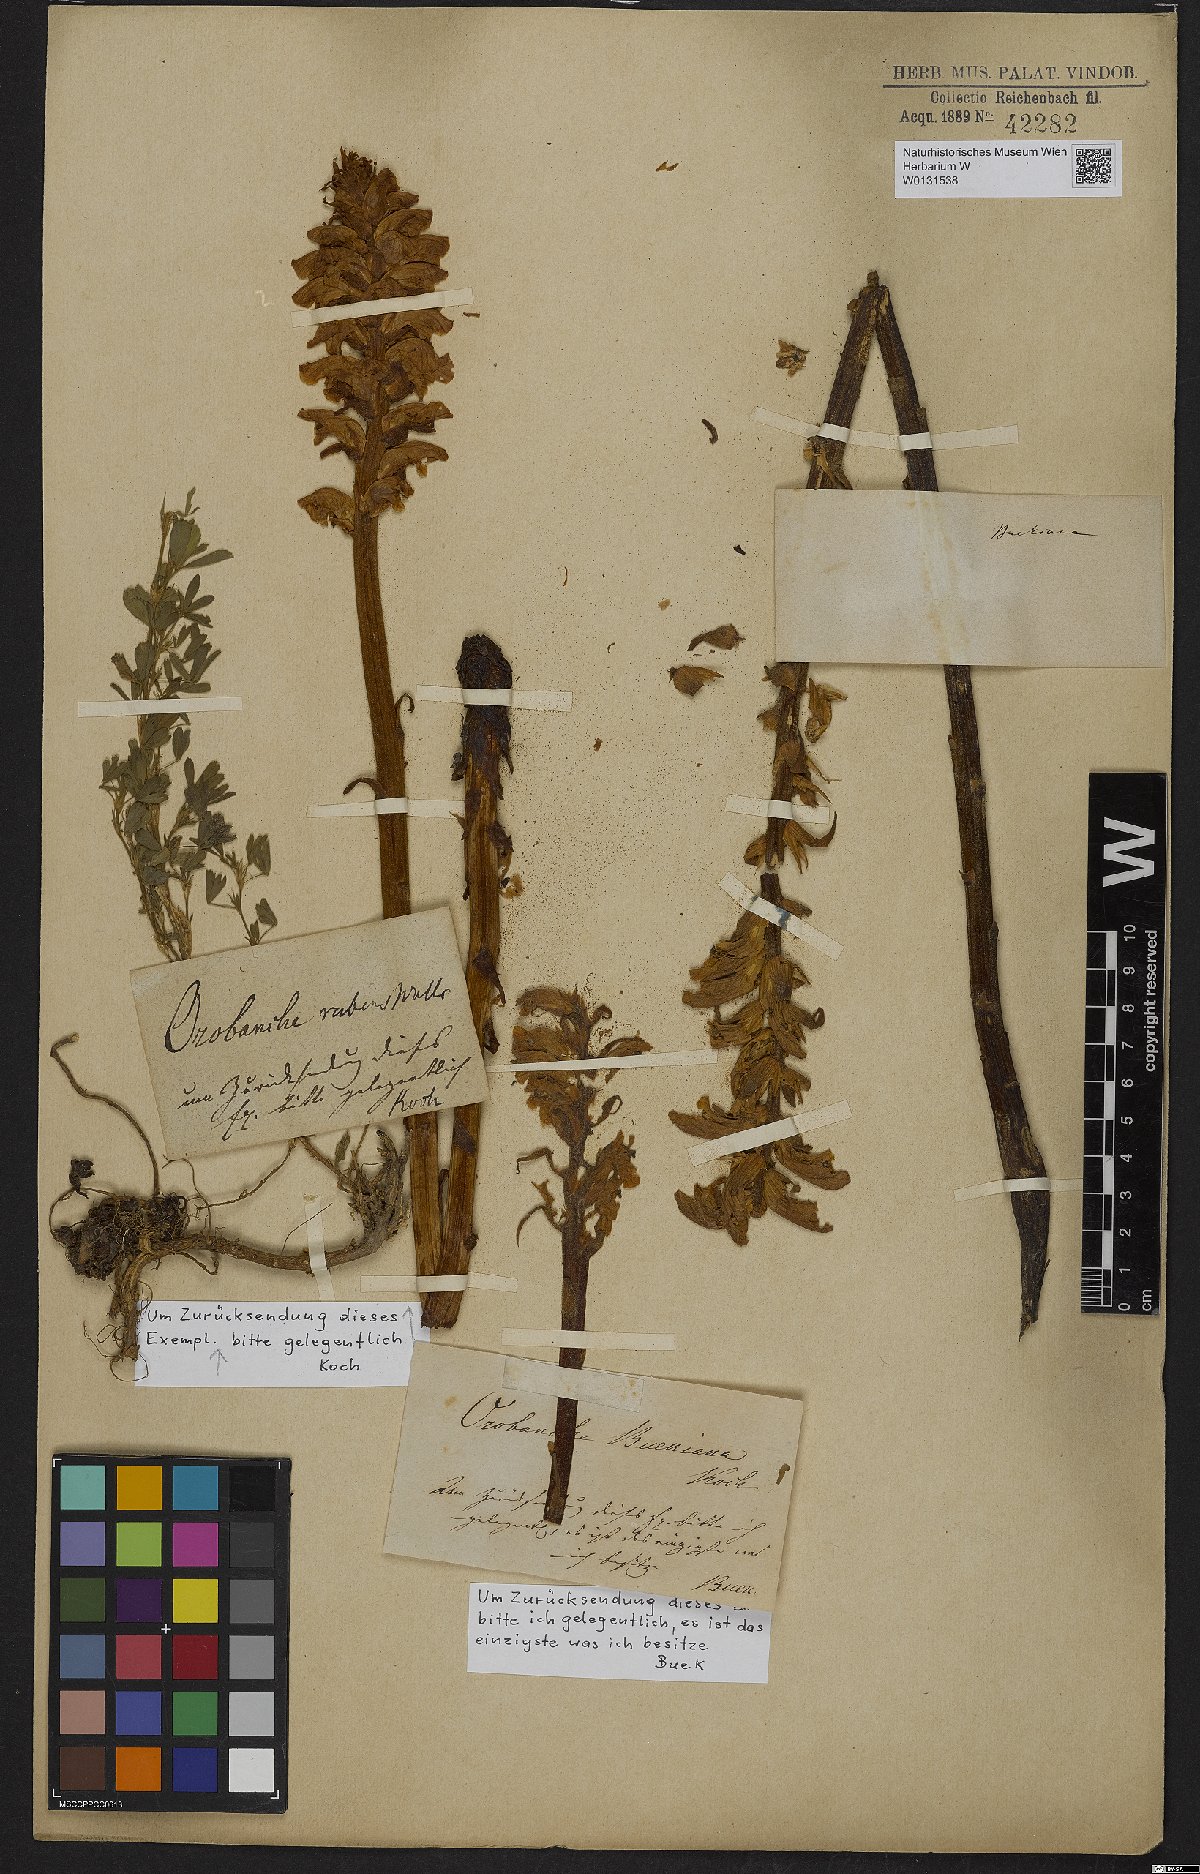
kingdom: Plantae
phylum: Tracheophyta
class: Magnoliopsida
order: Lamiales
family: Orobanchaceae
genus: Orobanche
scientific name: Orobanche lutea
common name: Yellow broomrape
